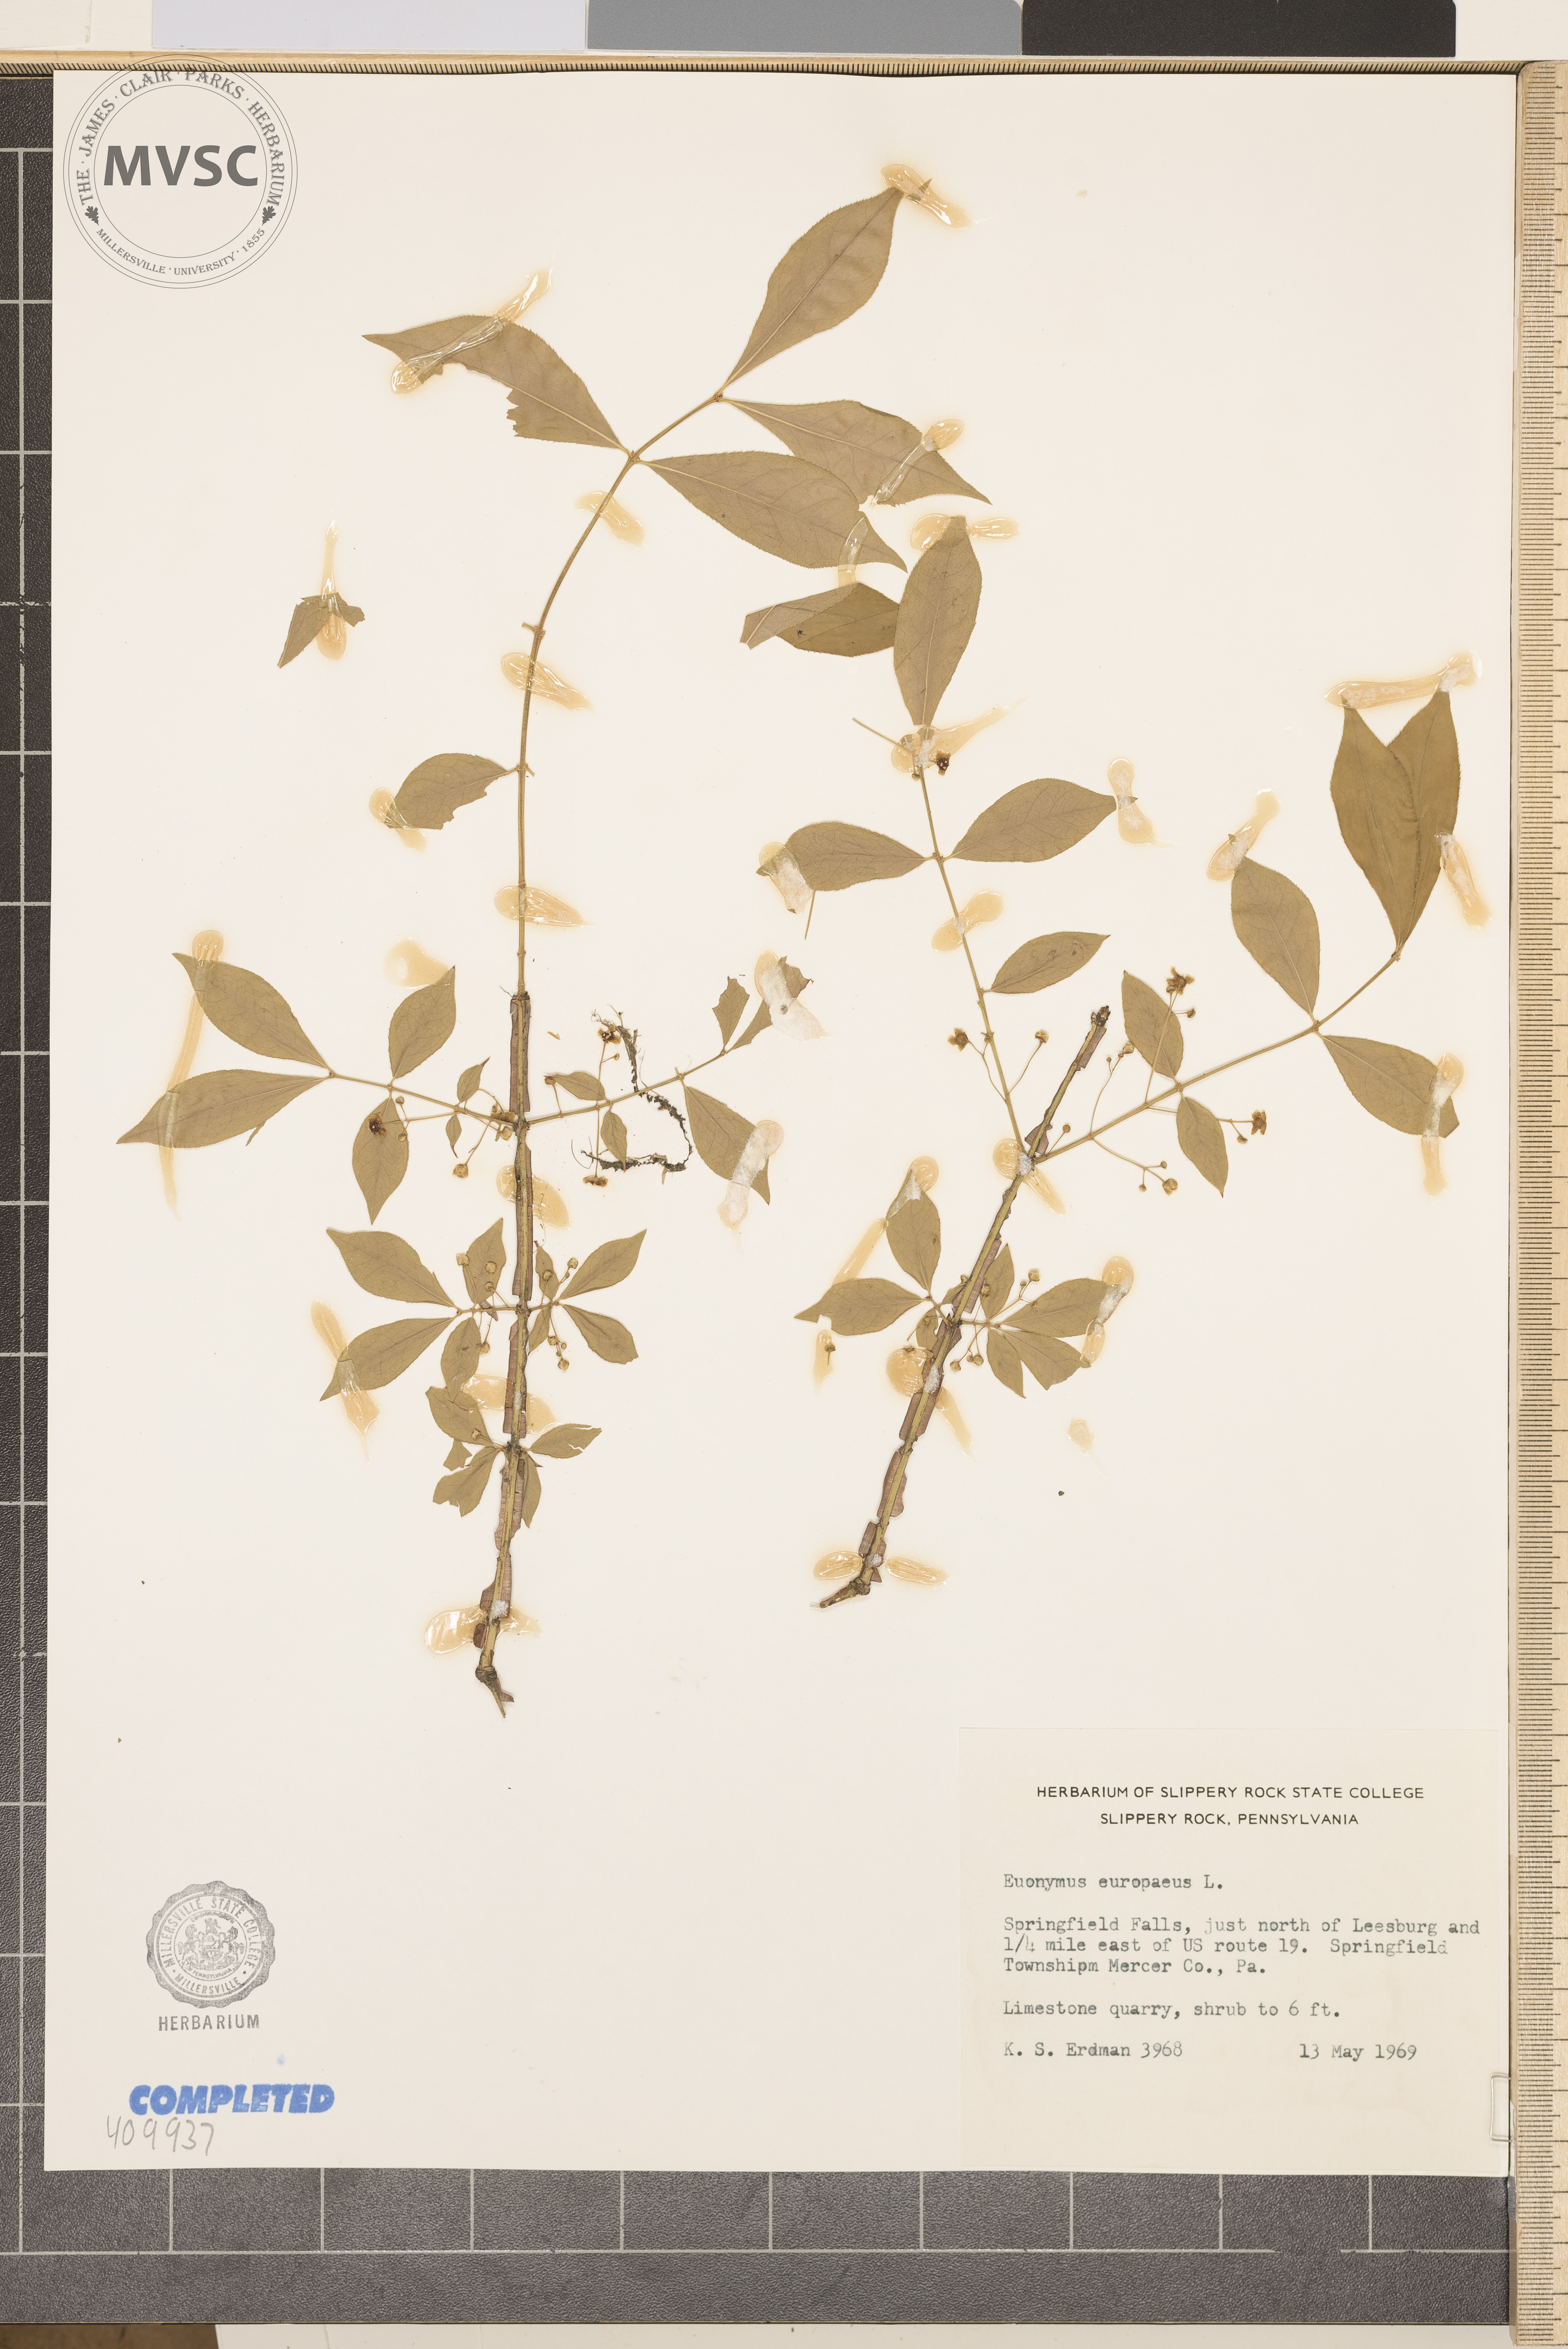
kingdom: Plantae
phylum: Tracheophyta
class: Magnoliopsida
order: Celastrales
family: Celastraceae
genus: Euonymus
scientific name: Euonymus europaeus
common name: European spindletree
